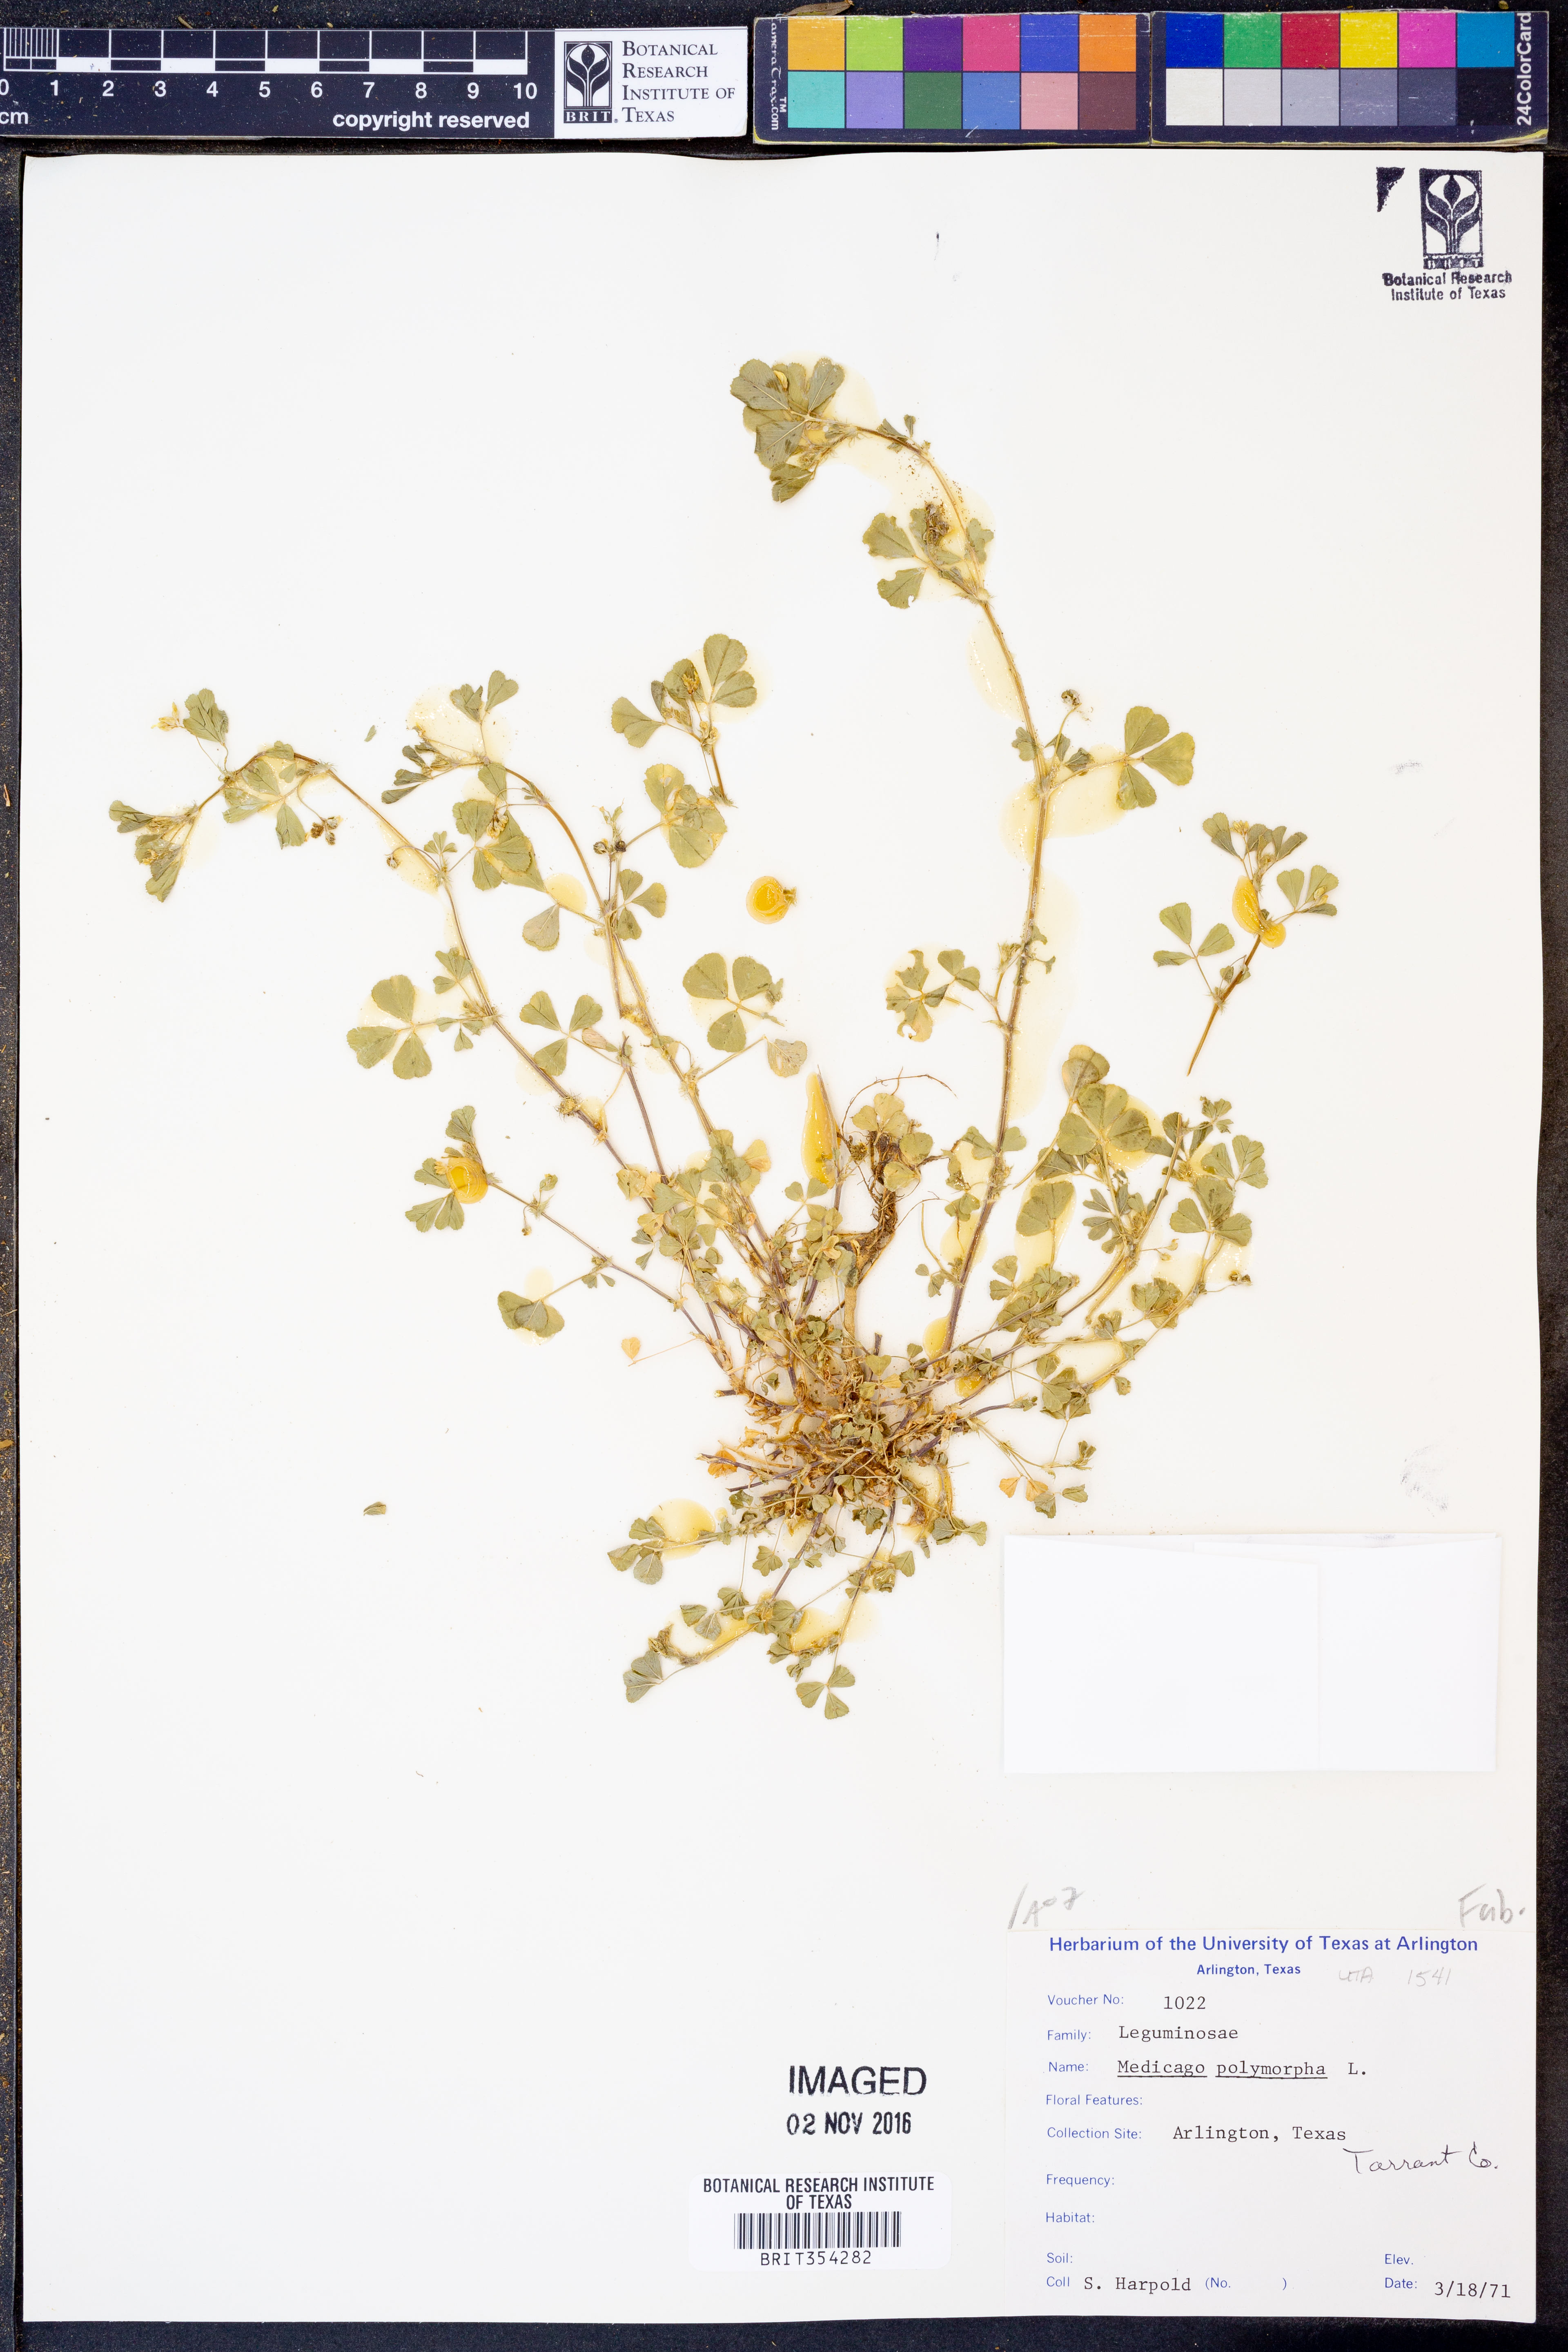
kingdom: Plantae
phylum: Tracheophyta
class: Magnoliopsida
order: Fabales
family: Fabaceae
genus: Medicago
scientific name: Medicago polymorpha
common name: Burclover
